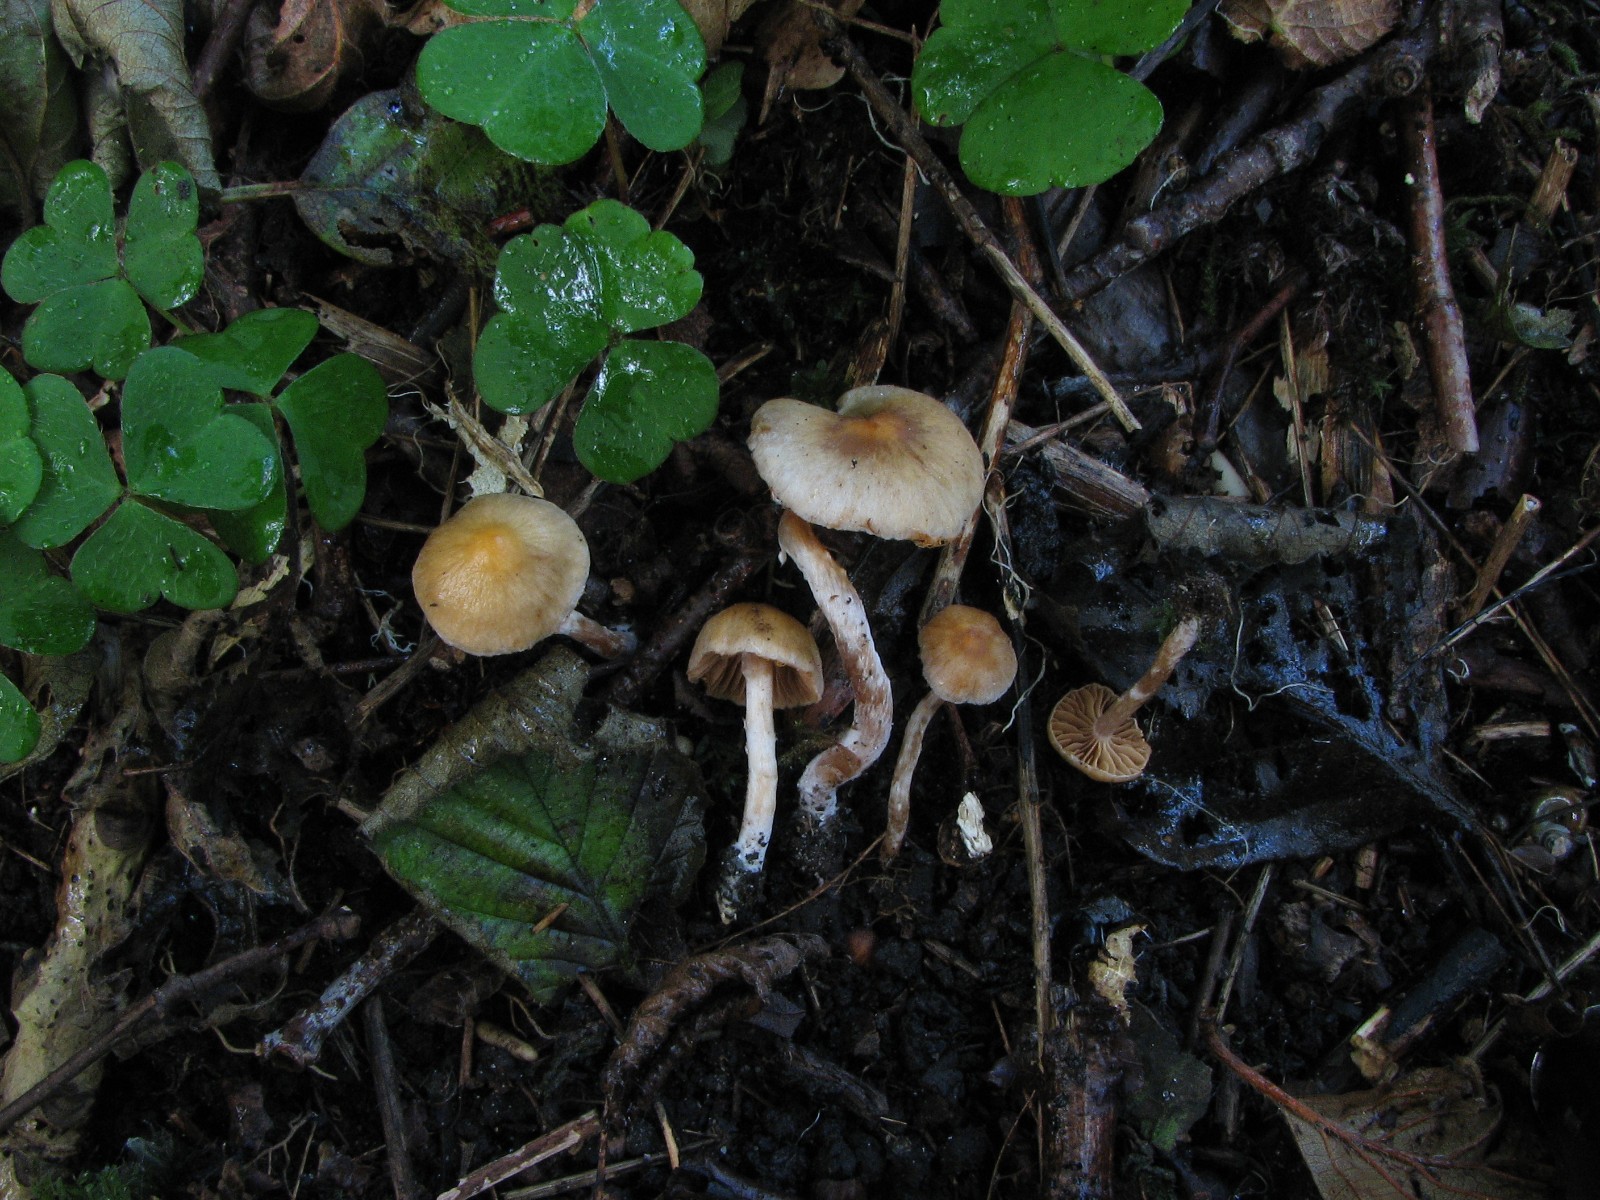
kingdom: Fungi
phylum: Basidiomycota
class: Agaricomycetes
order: Agaricales
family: Cortinariaceae
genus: Cortinarius
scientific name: Cortinarius
